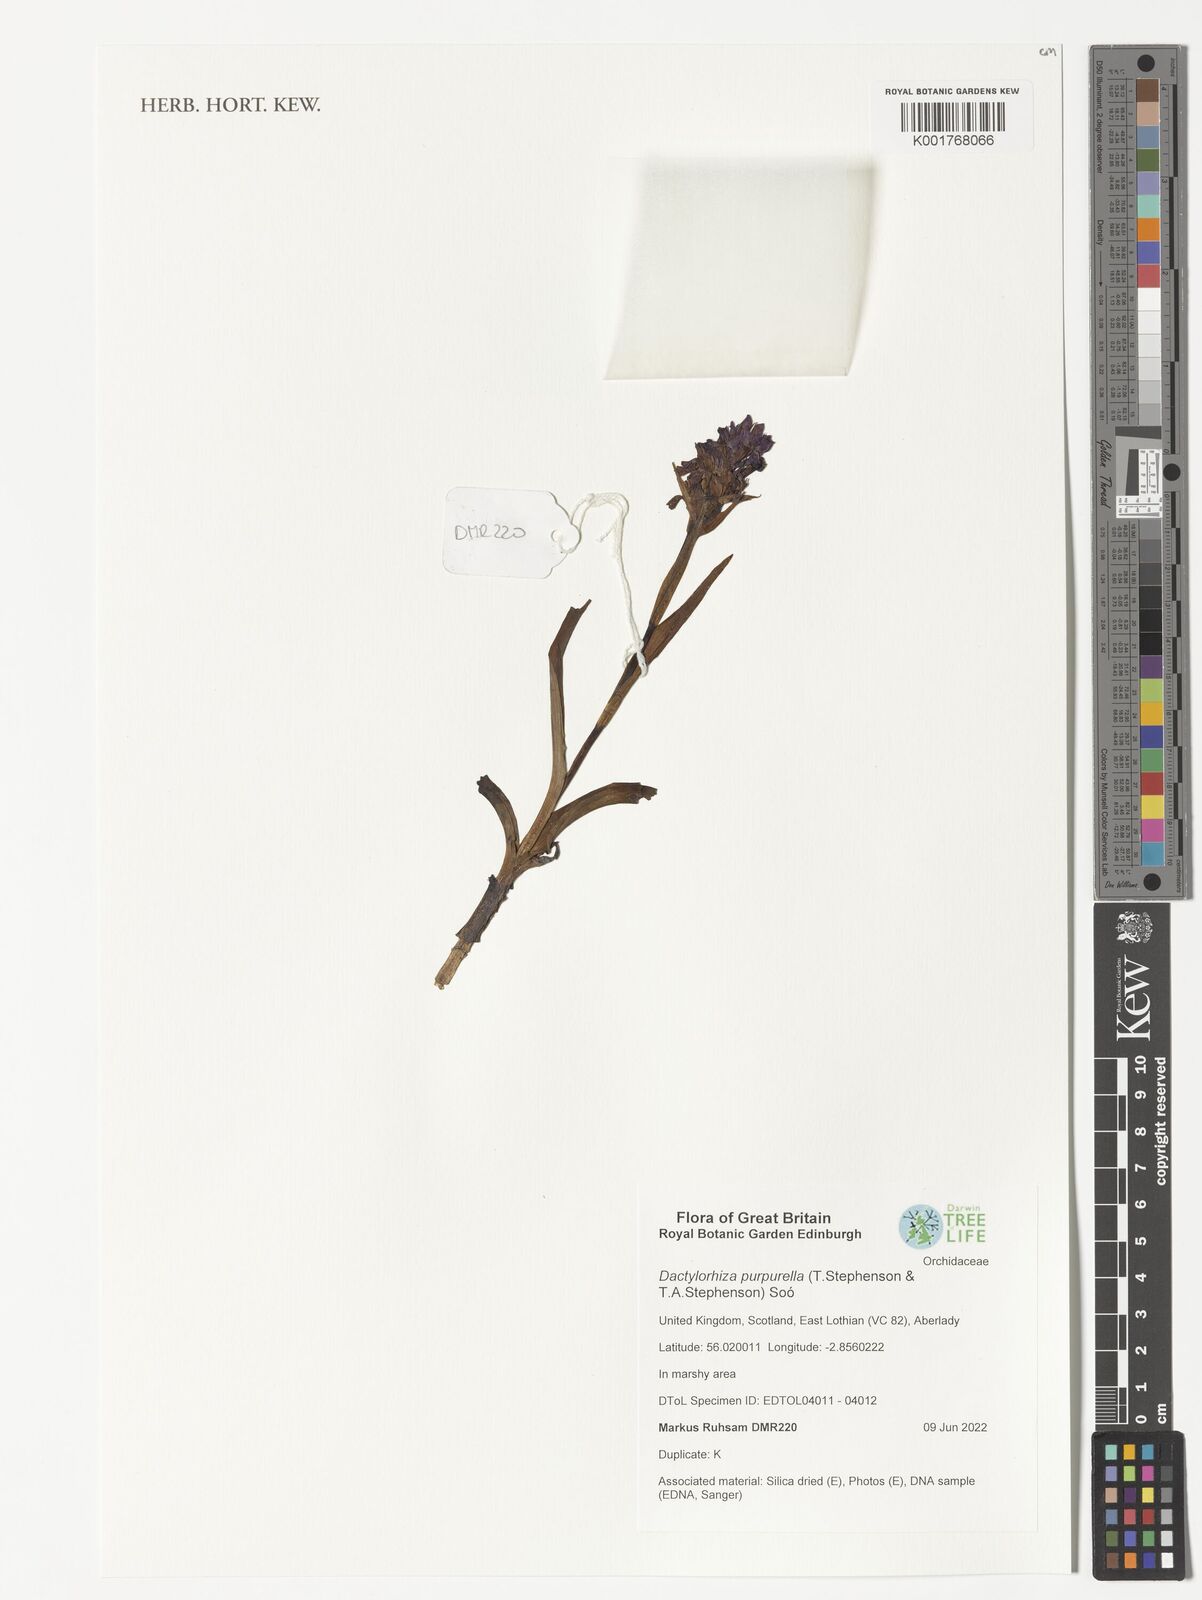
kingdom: Plantae
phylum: Tracheophyta
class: Liliopsida
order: Asparagales
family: Orchidaceae
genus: Dactylorhiza
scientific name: Dactylorhiza majalis
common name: Marsh orchid
